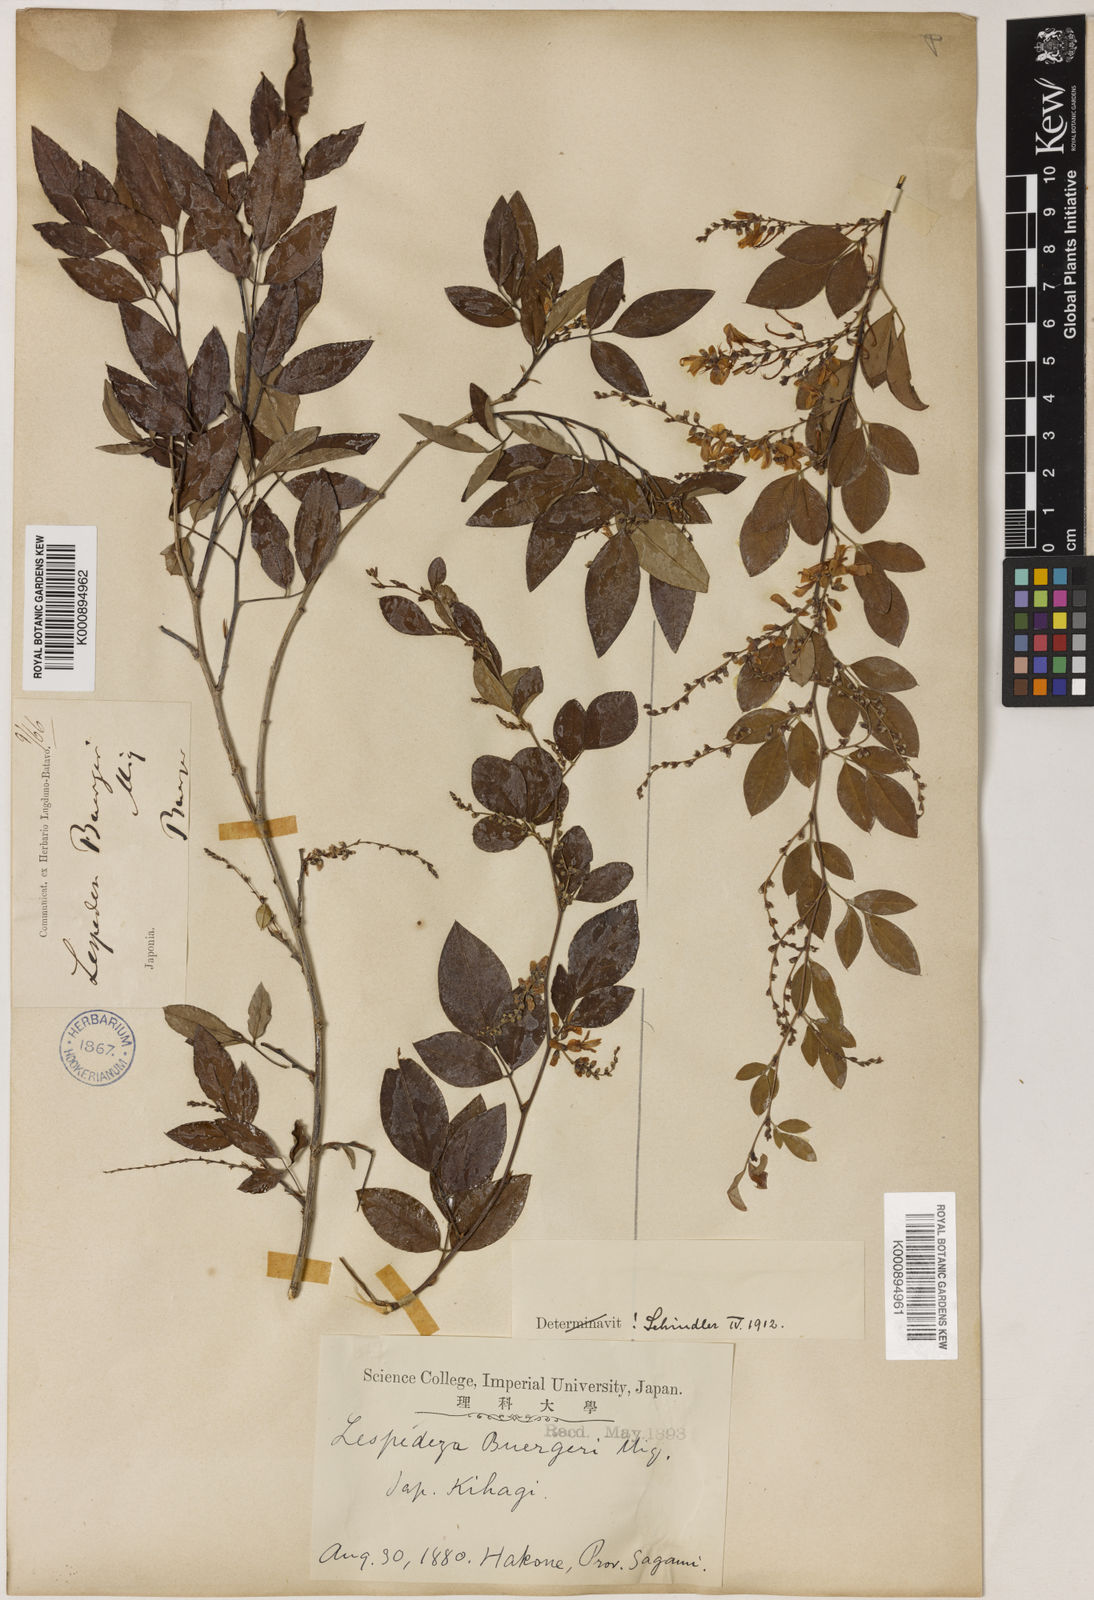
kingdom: Plantae
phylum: Tracheophyta
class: Magnoliopsida
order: Fabales
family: Fabaceae
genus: Lespedeza
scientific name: Lespedeza buergeri
